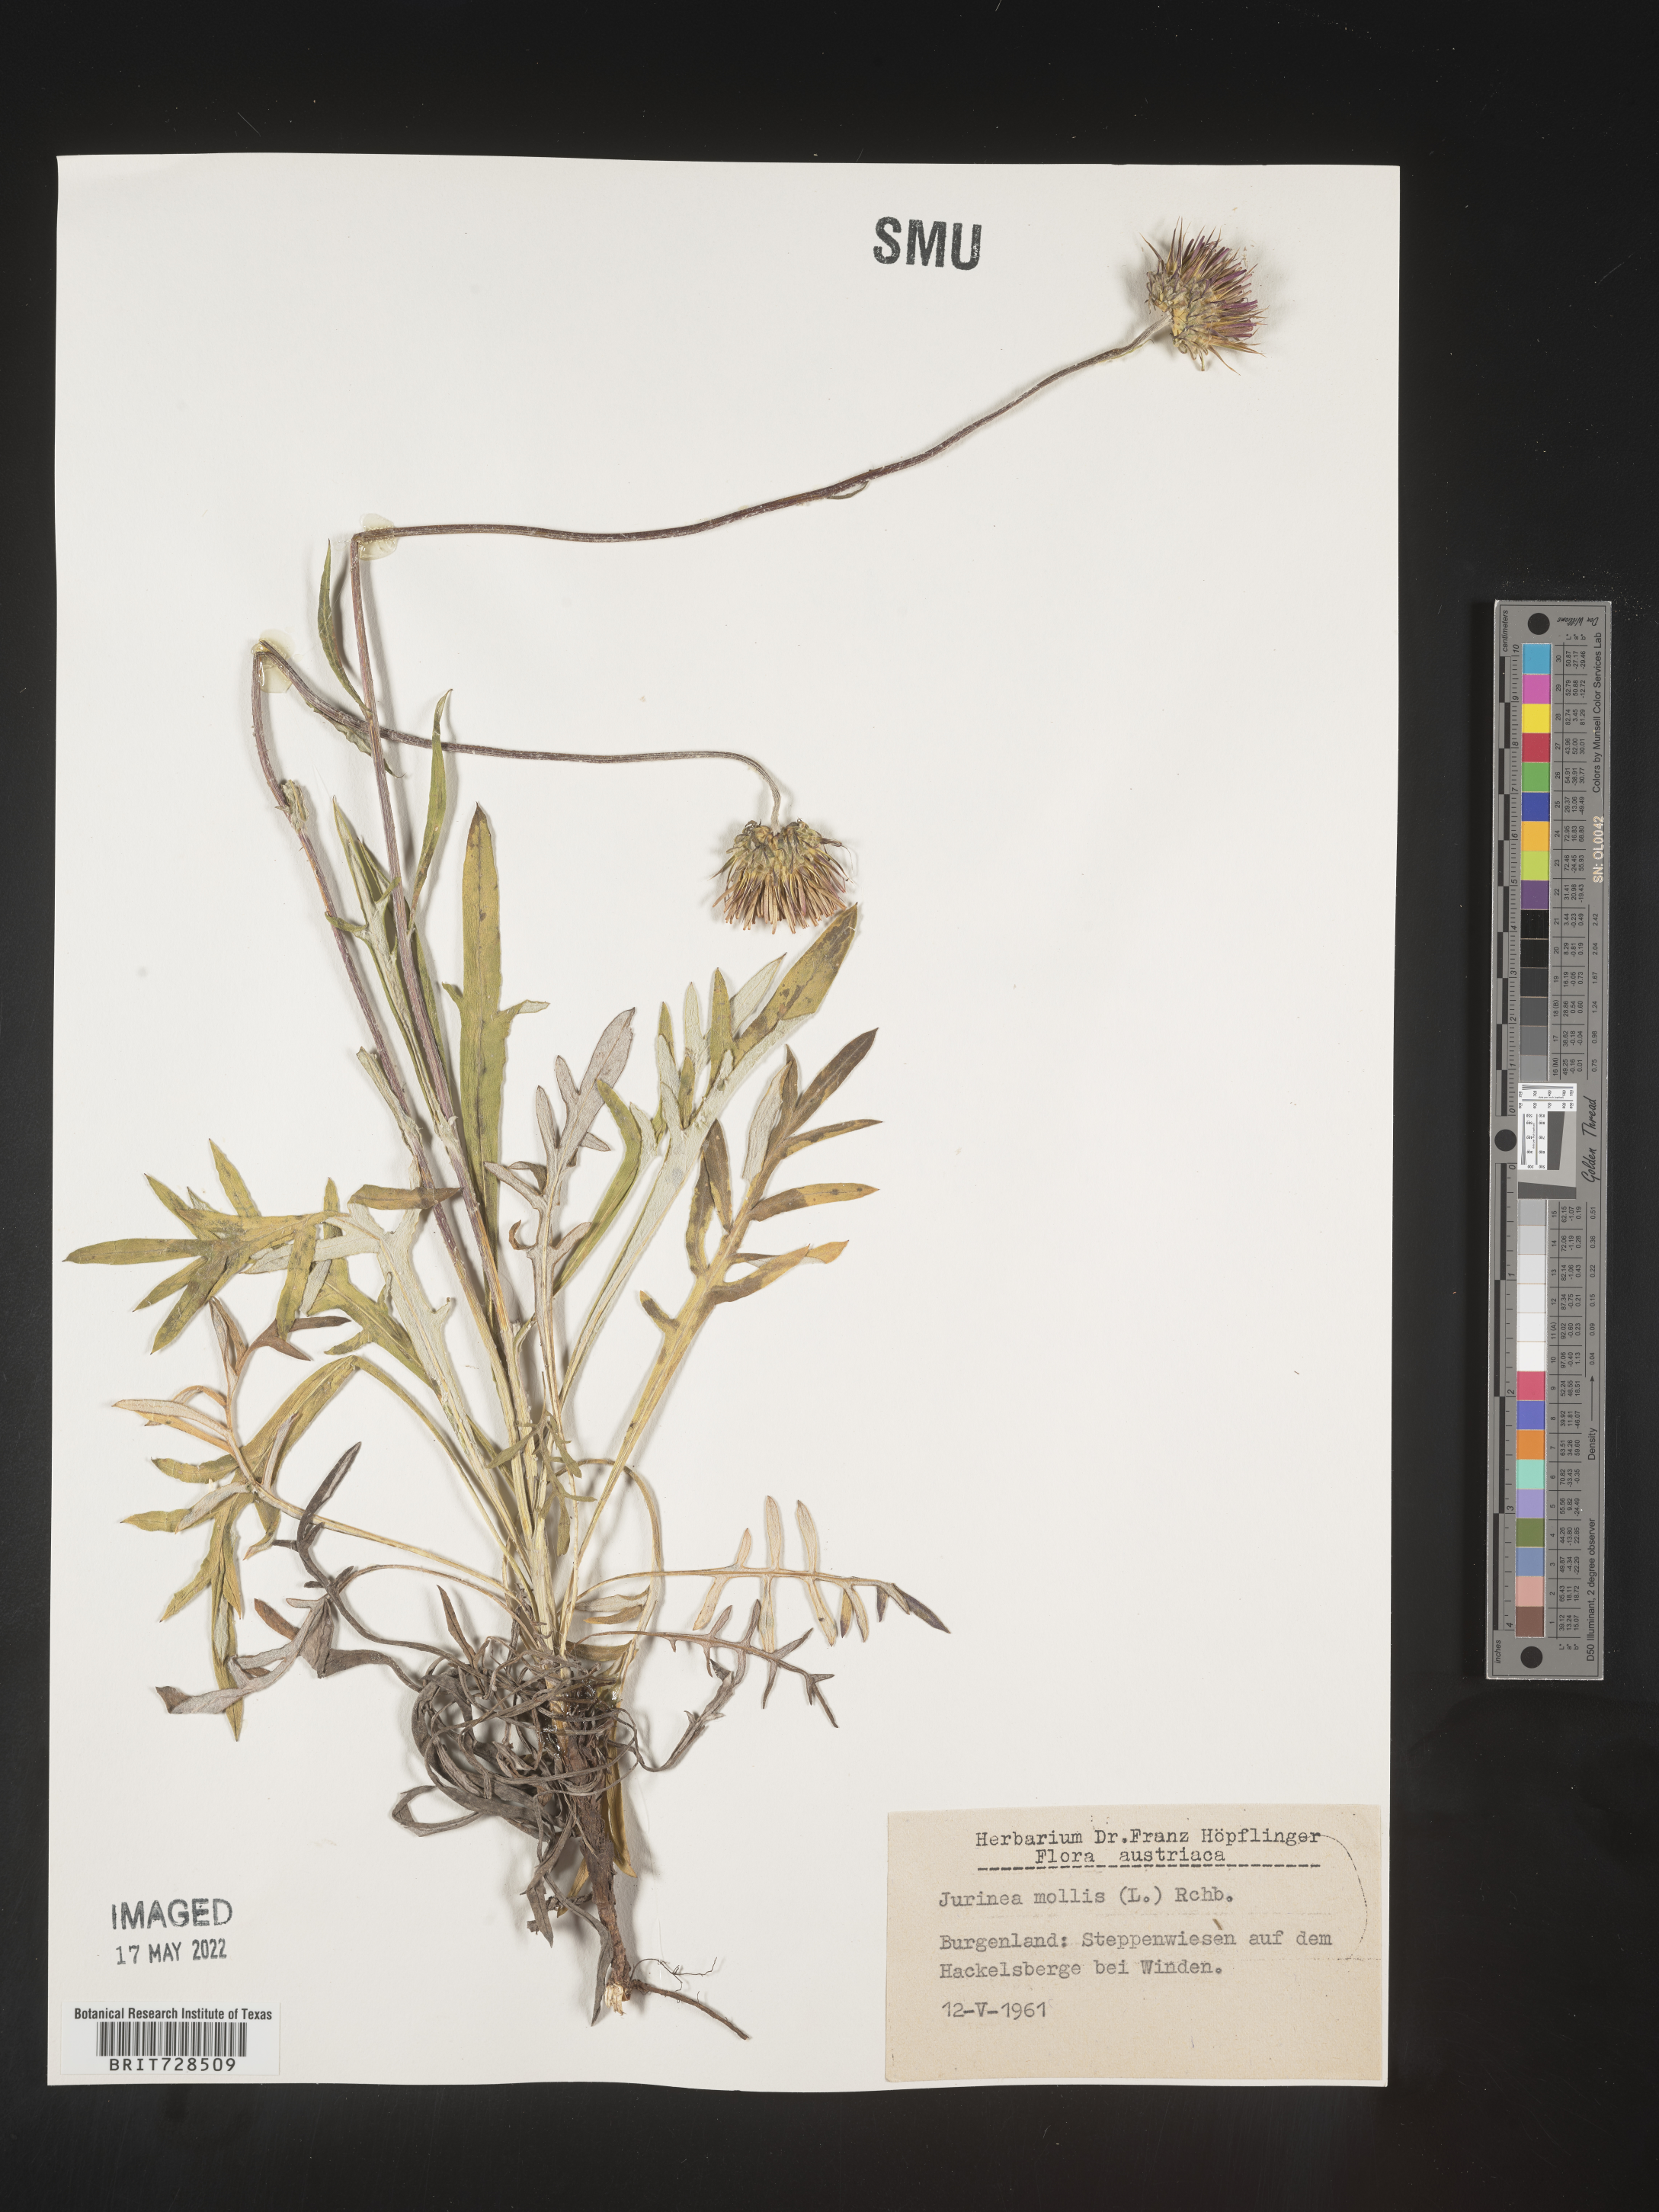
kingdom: Plantae
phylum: Tracheophyta
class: Magnoliopsida
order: Asterales
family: Asteraceae
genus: Jurinea
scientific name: Jurinea
